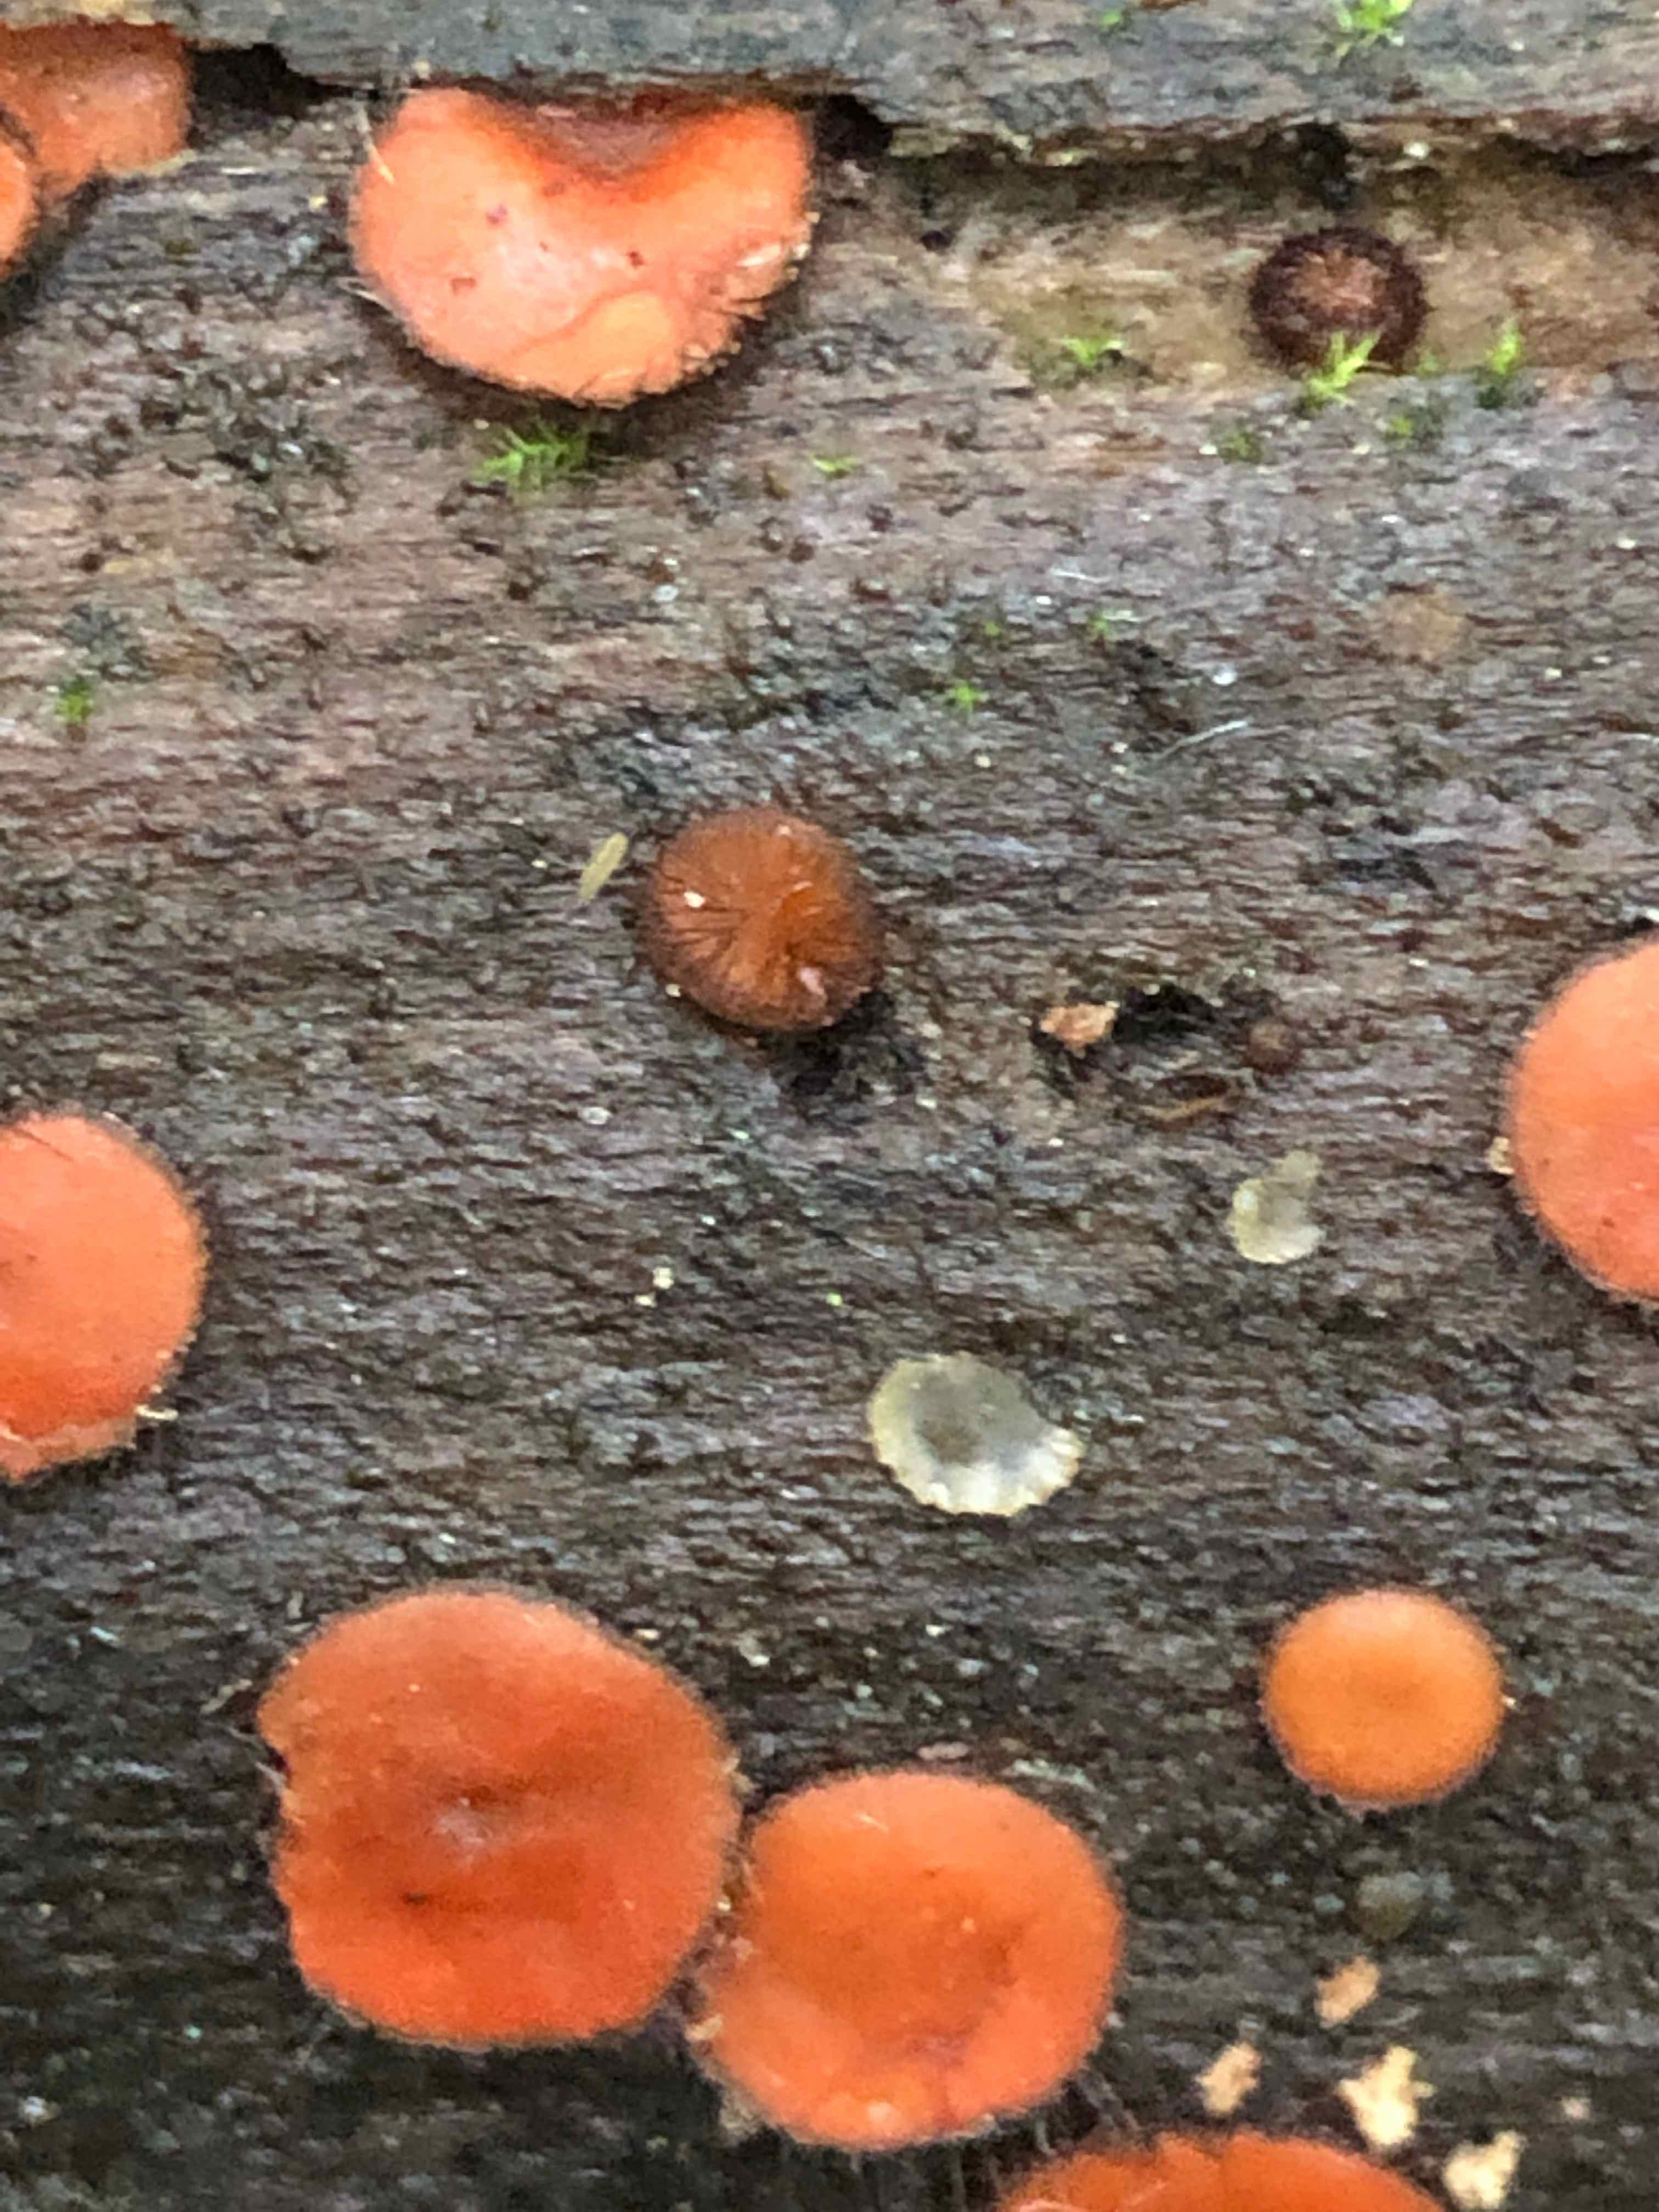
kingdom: Fungi
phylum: Ascomycota
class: Pezizomycetes
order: Pezizales
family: Pyronemataceae
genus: Scutellinia
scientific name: Scutellinia scutellata
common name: frynset skjoldbæger
